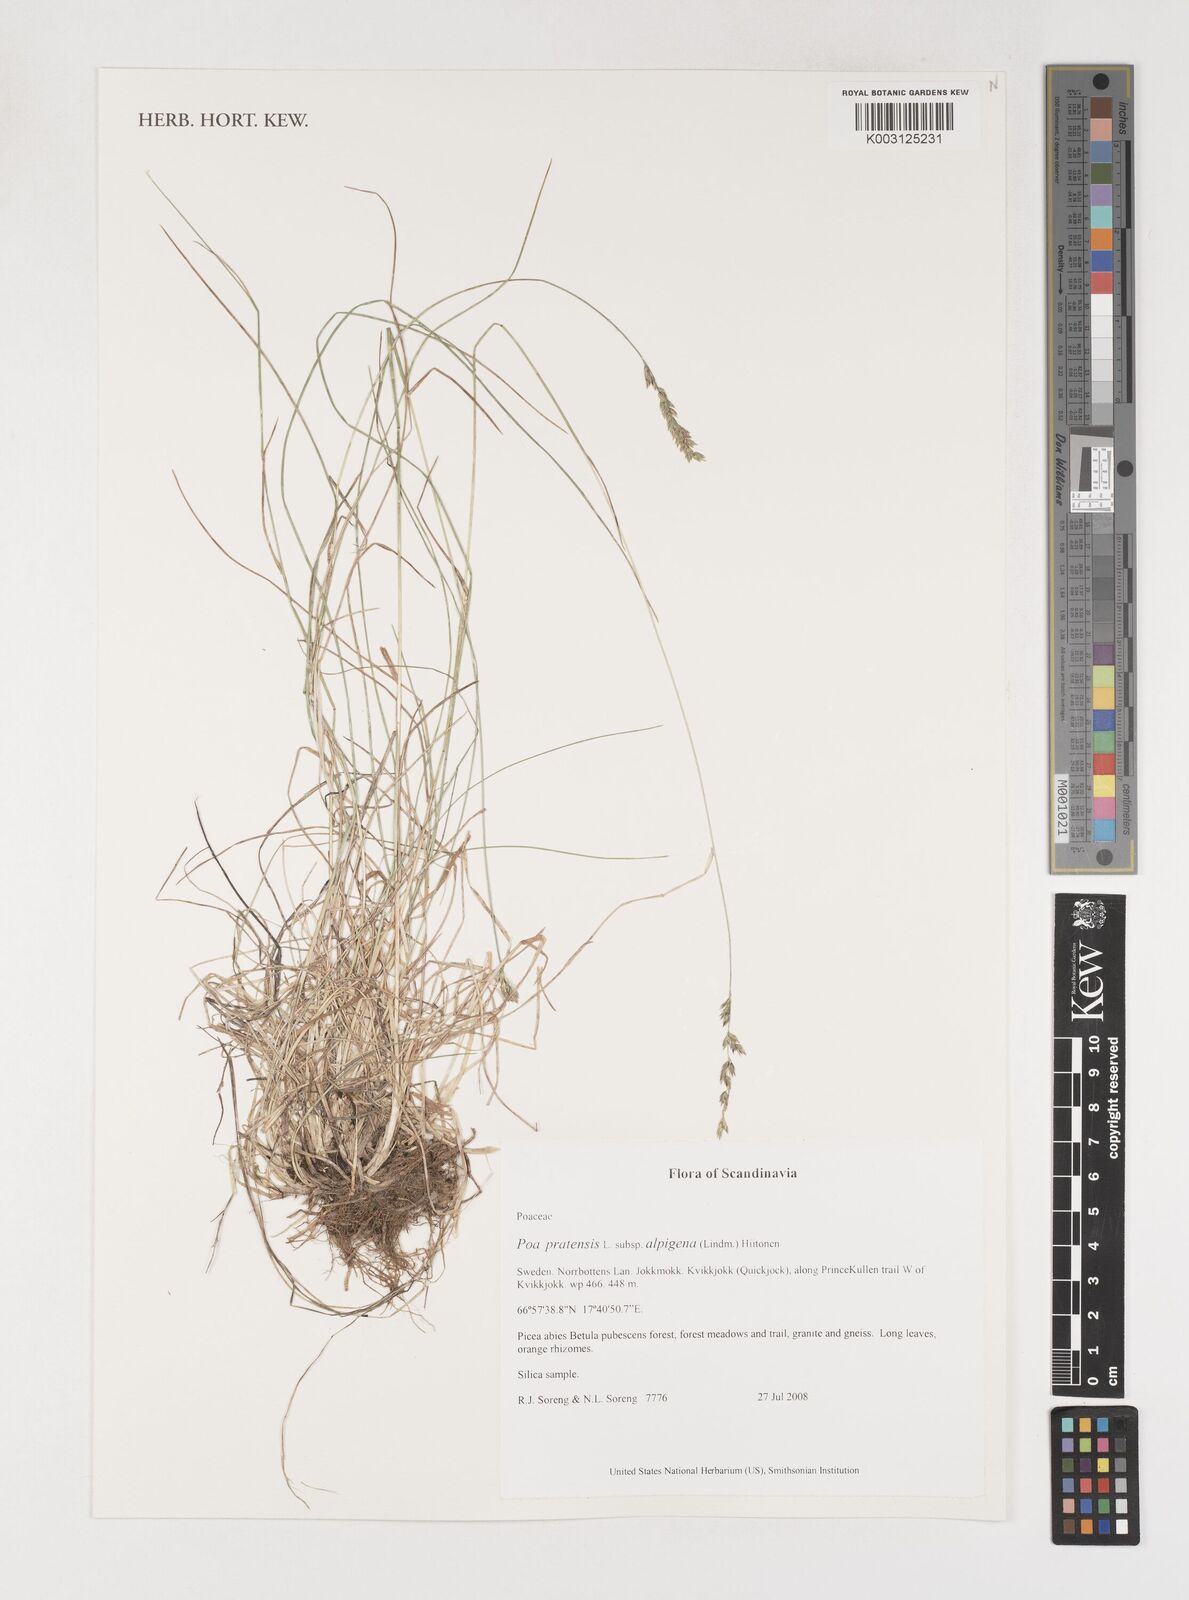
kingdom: Plantae
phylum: Tracheophyta
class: Liliopsida
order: Poales
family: Poaceae
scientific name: Poaceae
